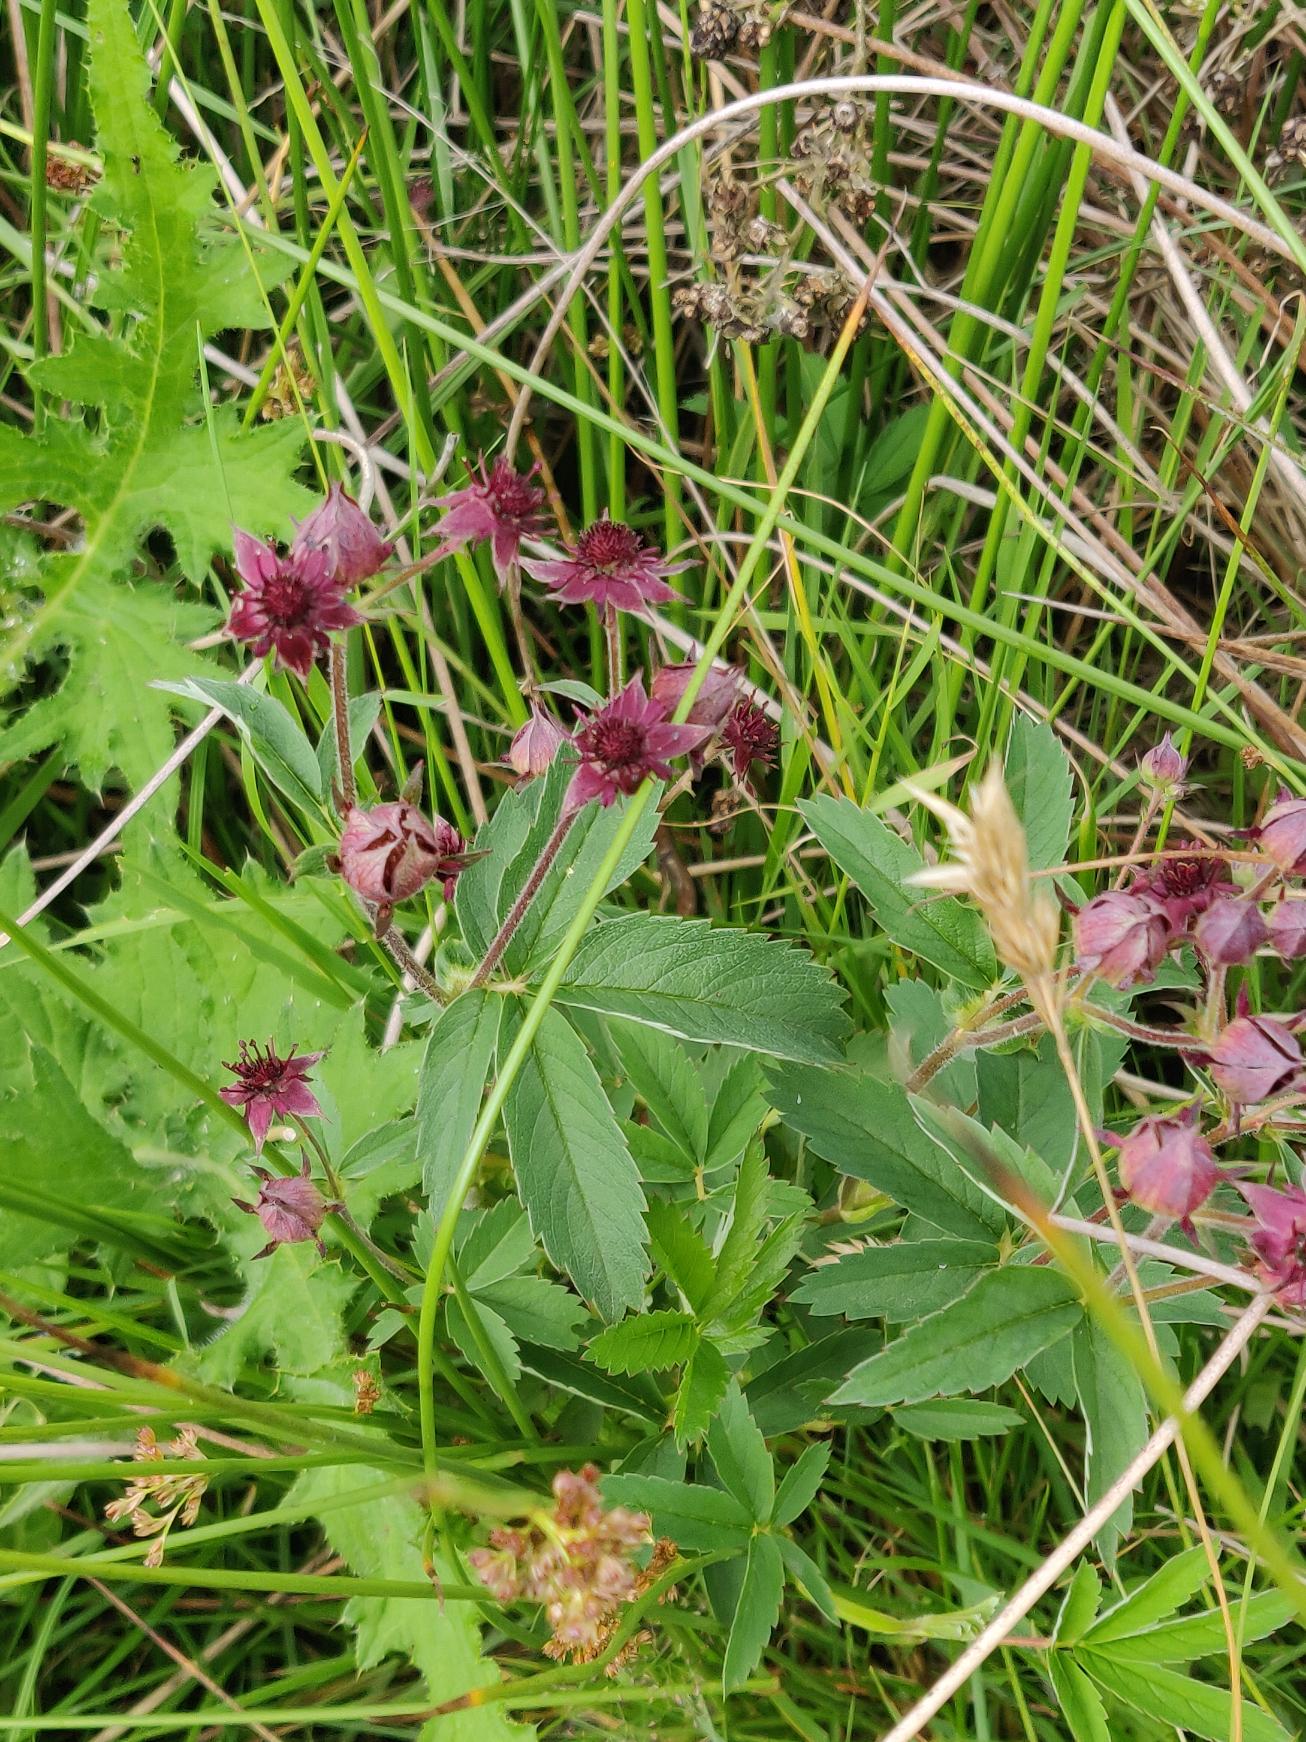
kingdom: Plantae
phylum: Tracheophyta
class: Magnoliopsida
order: Rosales
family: Rosaceae
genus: Comarum
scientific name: Comarum palustre
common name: Kragefod
